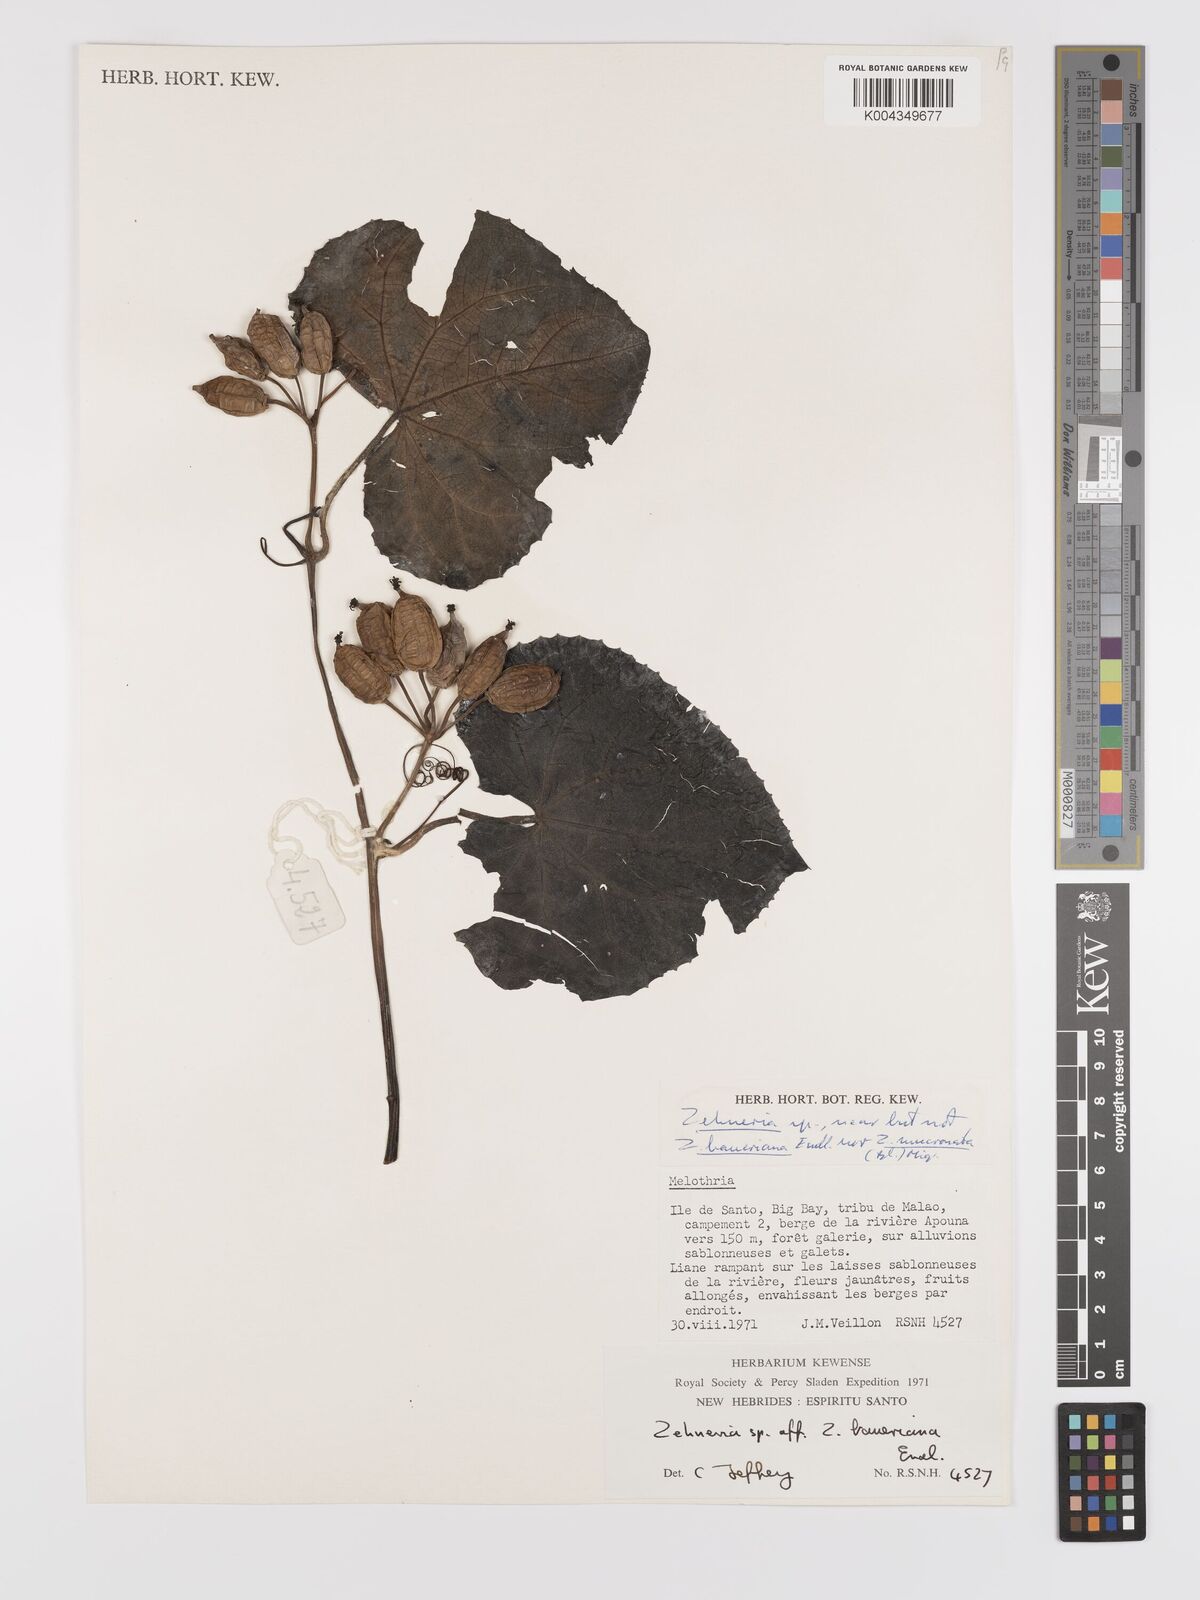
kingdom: Plantae
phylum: Tracheophyta
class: Magnoliopsida
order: Cucurbitales
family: Cucurbitaceae
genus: Zehneria
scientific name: Zehneria mucronata
